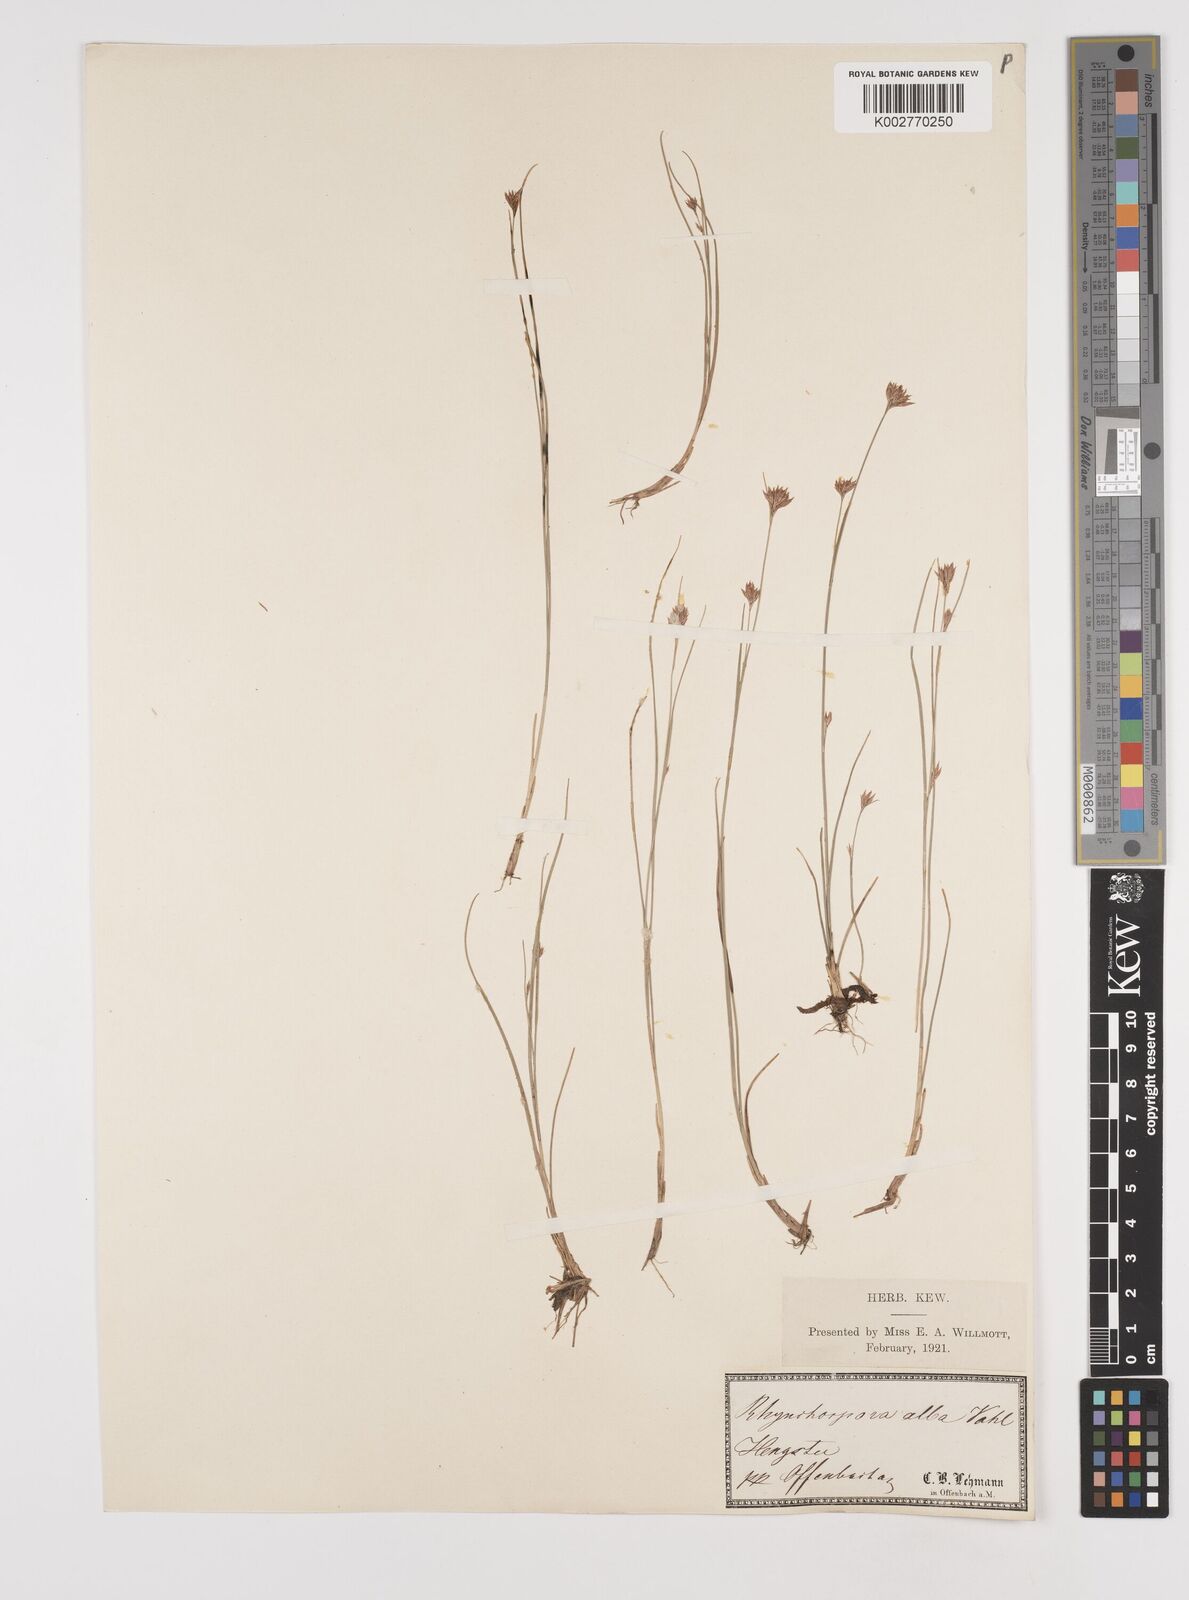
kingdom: Plantae
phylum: Tracheophyta
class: Liliopsida
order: Poales
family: Cyperaceae
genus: Rhynchospora
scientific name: Rhynchospora alba
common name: White beak-sedge
